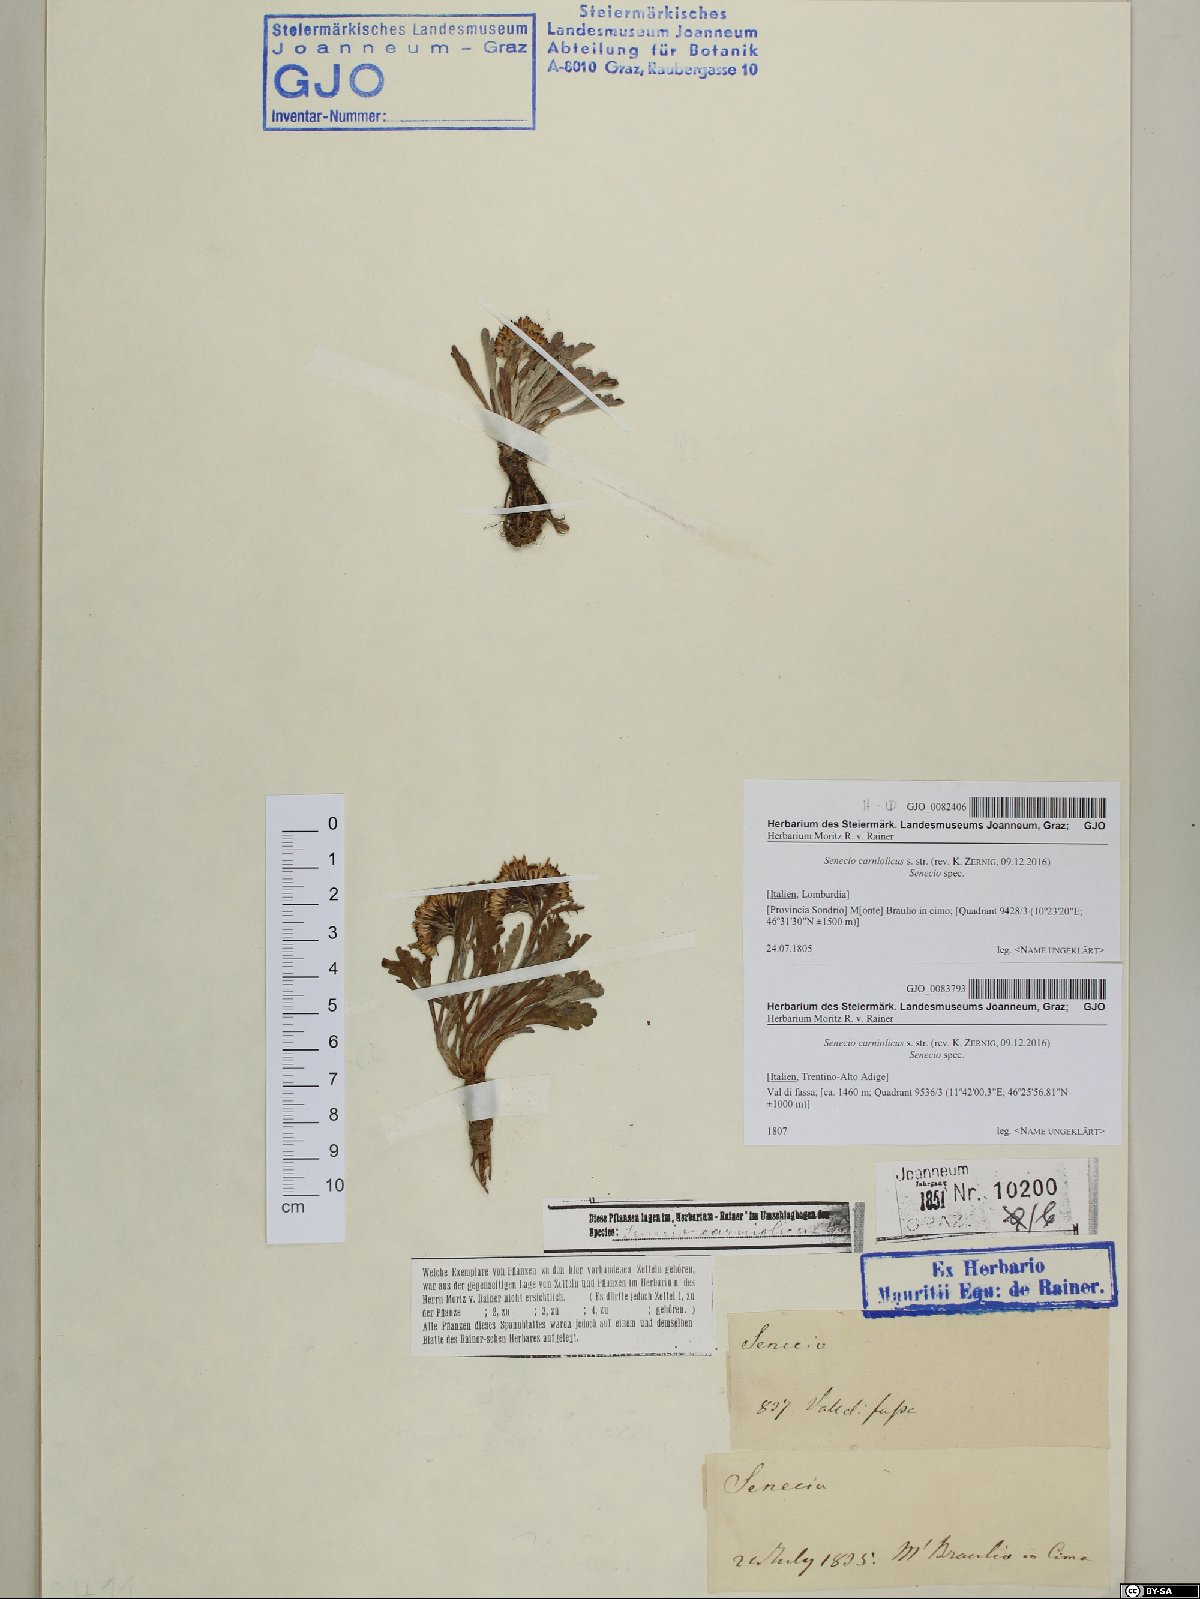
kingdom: Plantae
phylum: Tracheophyta
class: Magnoliopsida
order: Asterales
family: Asteraceae
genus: Jacobaea
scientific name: Jacobaea carniolica
